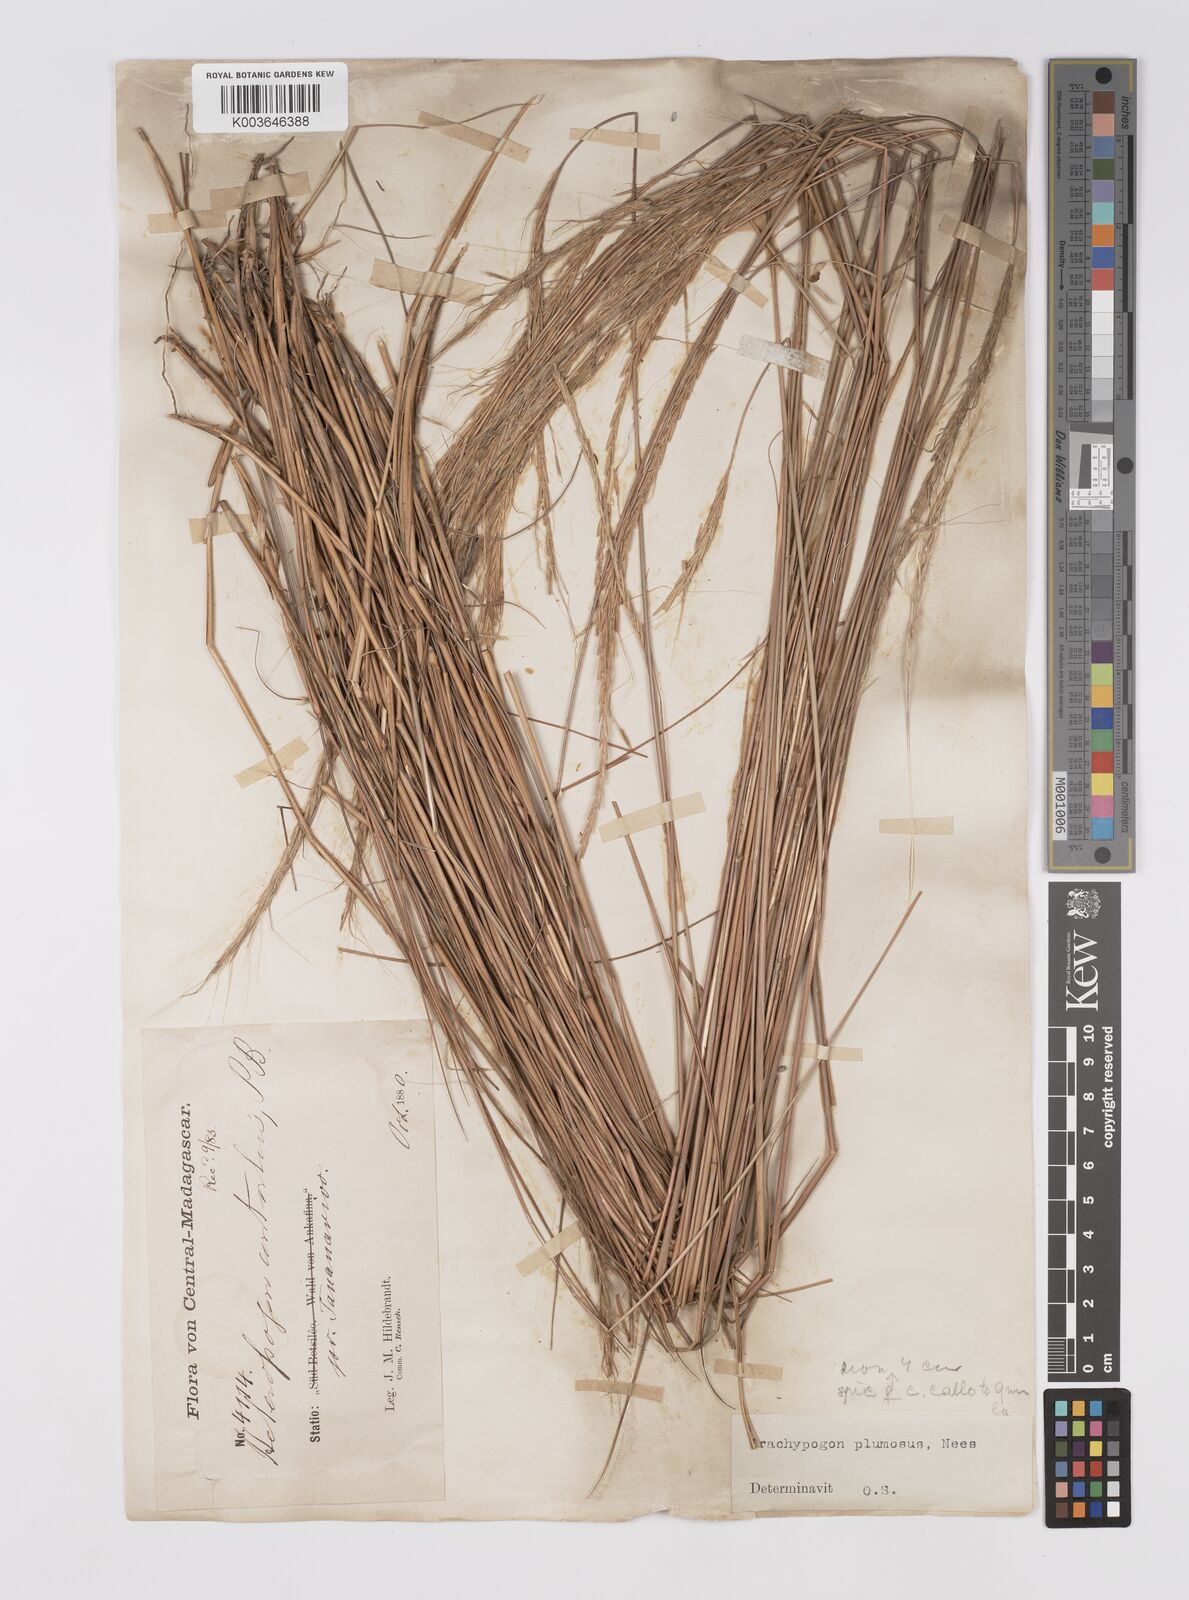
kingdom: Plantae
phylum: Tracheophyta
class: Liliopsida
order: Poales
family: Poaceae
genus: Trachypogon
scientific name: Trachypogon spicatus
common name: Crinkle-awn
